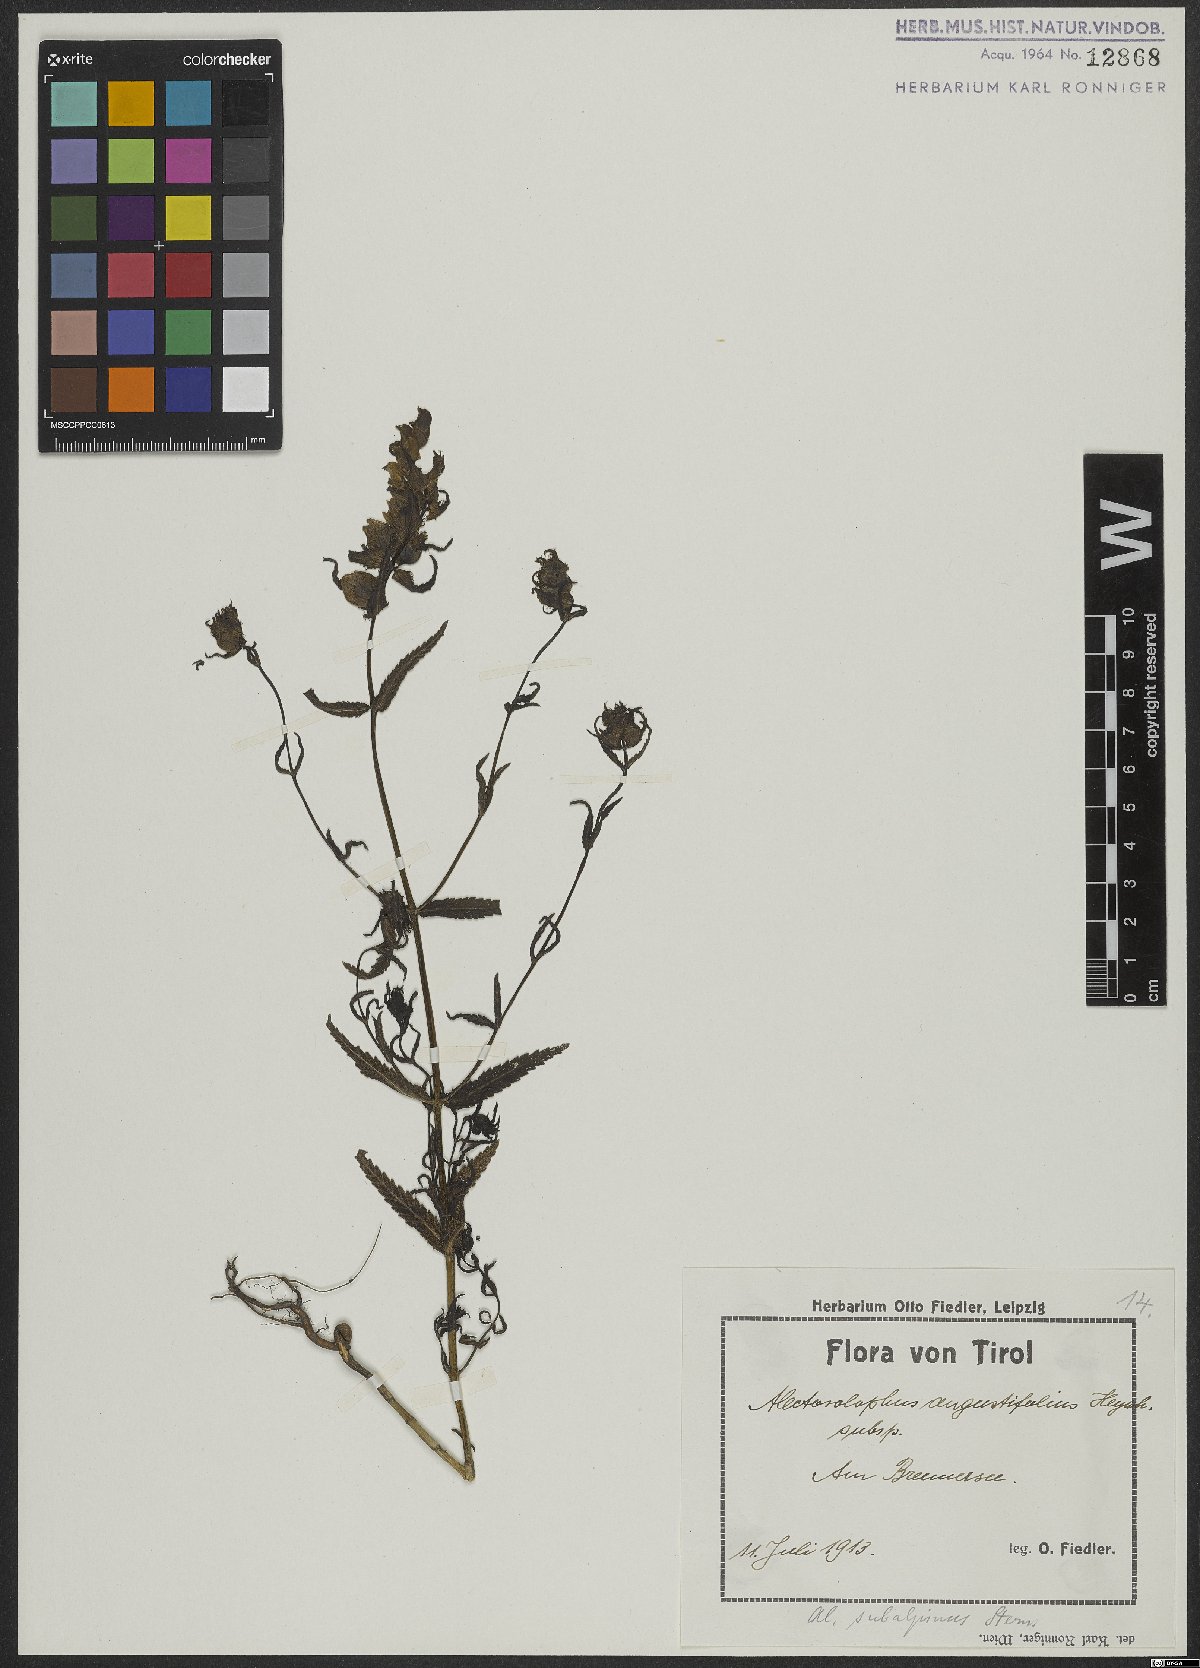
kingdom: Plantae
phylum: Tracheophyta
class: Magnoliopsida
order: Lamiales
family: Orobanchaceae
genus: Rhinanthus
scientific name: Rhinanthus glacialis
